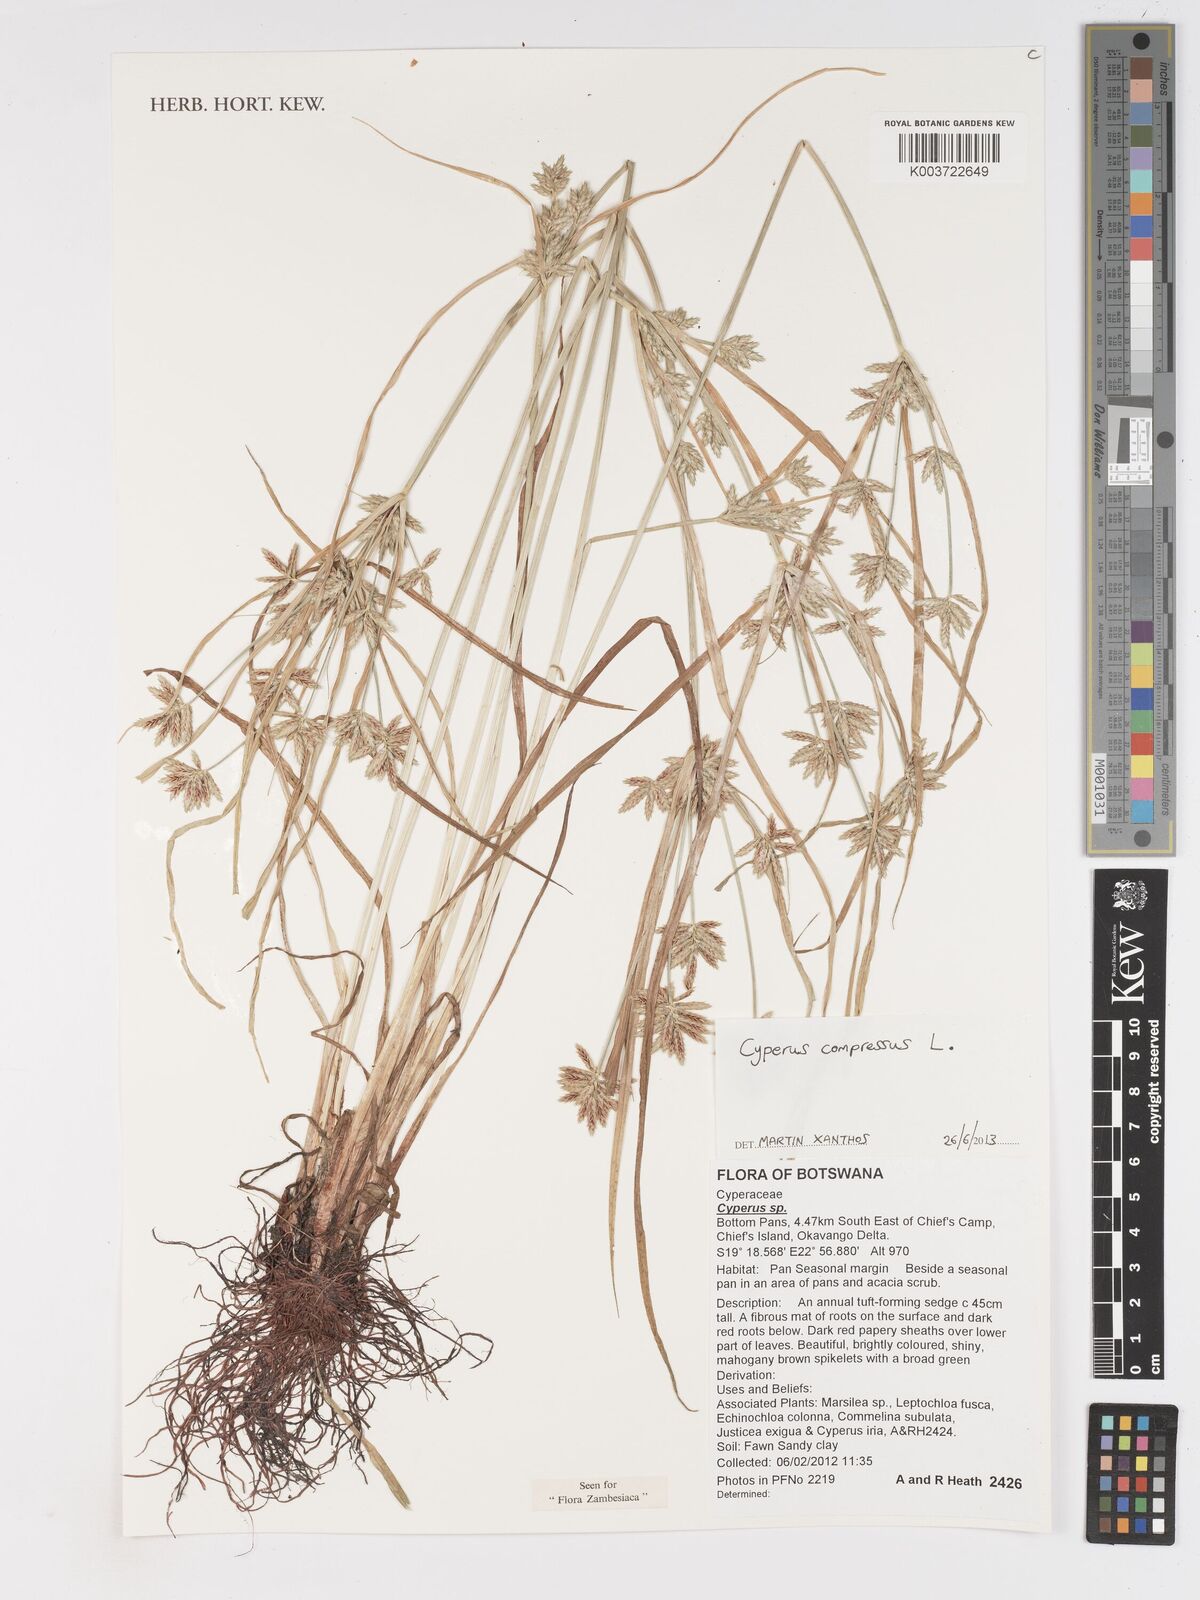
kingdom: Plantae
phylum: Tracheophyta
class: Liliopsida
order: Poales
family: Cyperaceae
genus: Cyperus
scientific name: Cyperus compressus
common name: Poorland flatsedge
